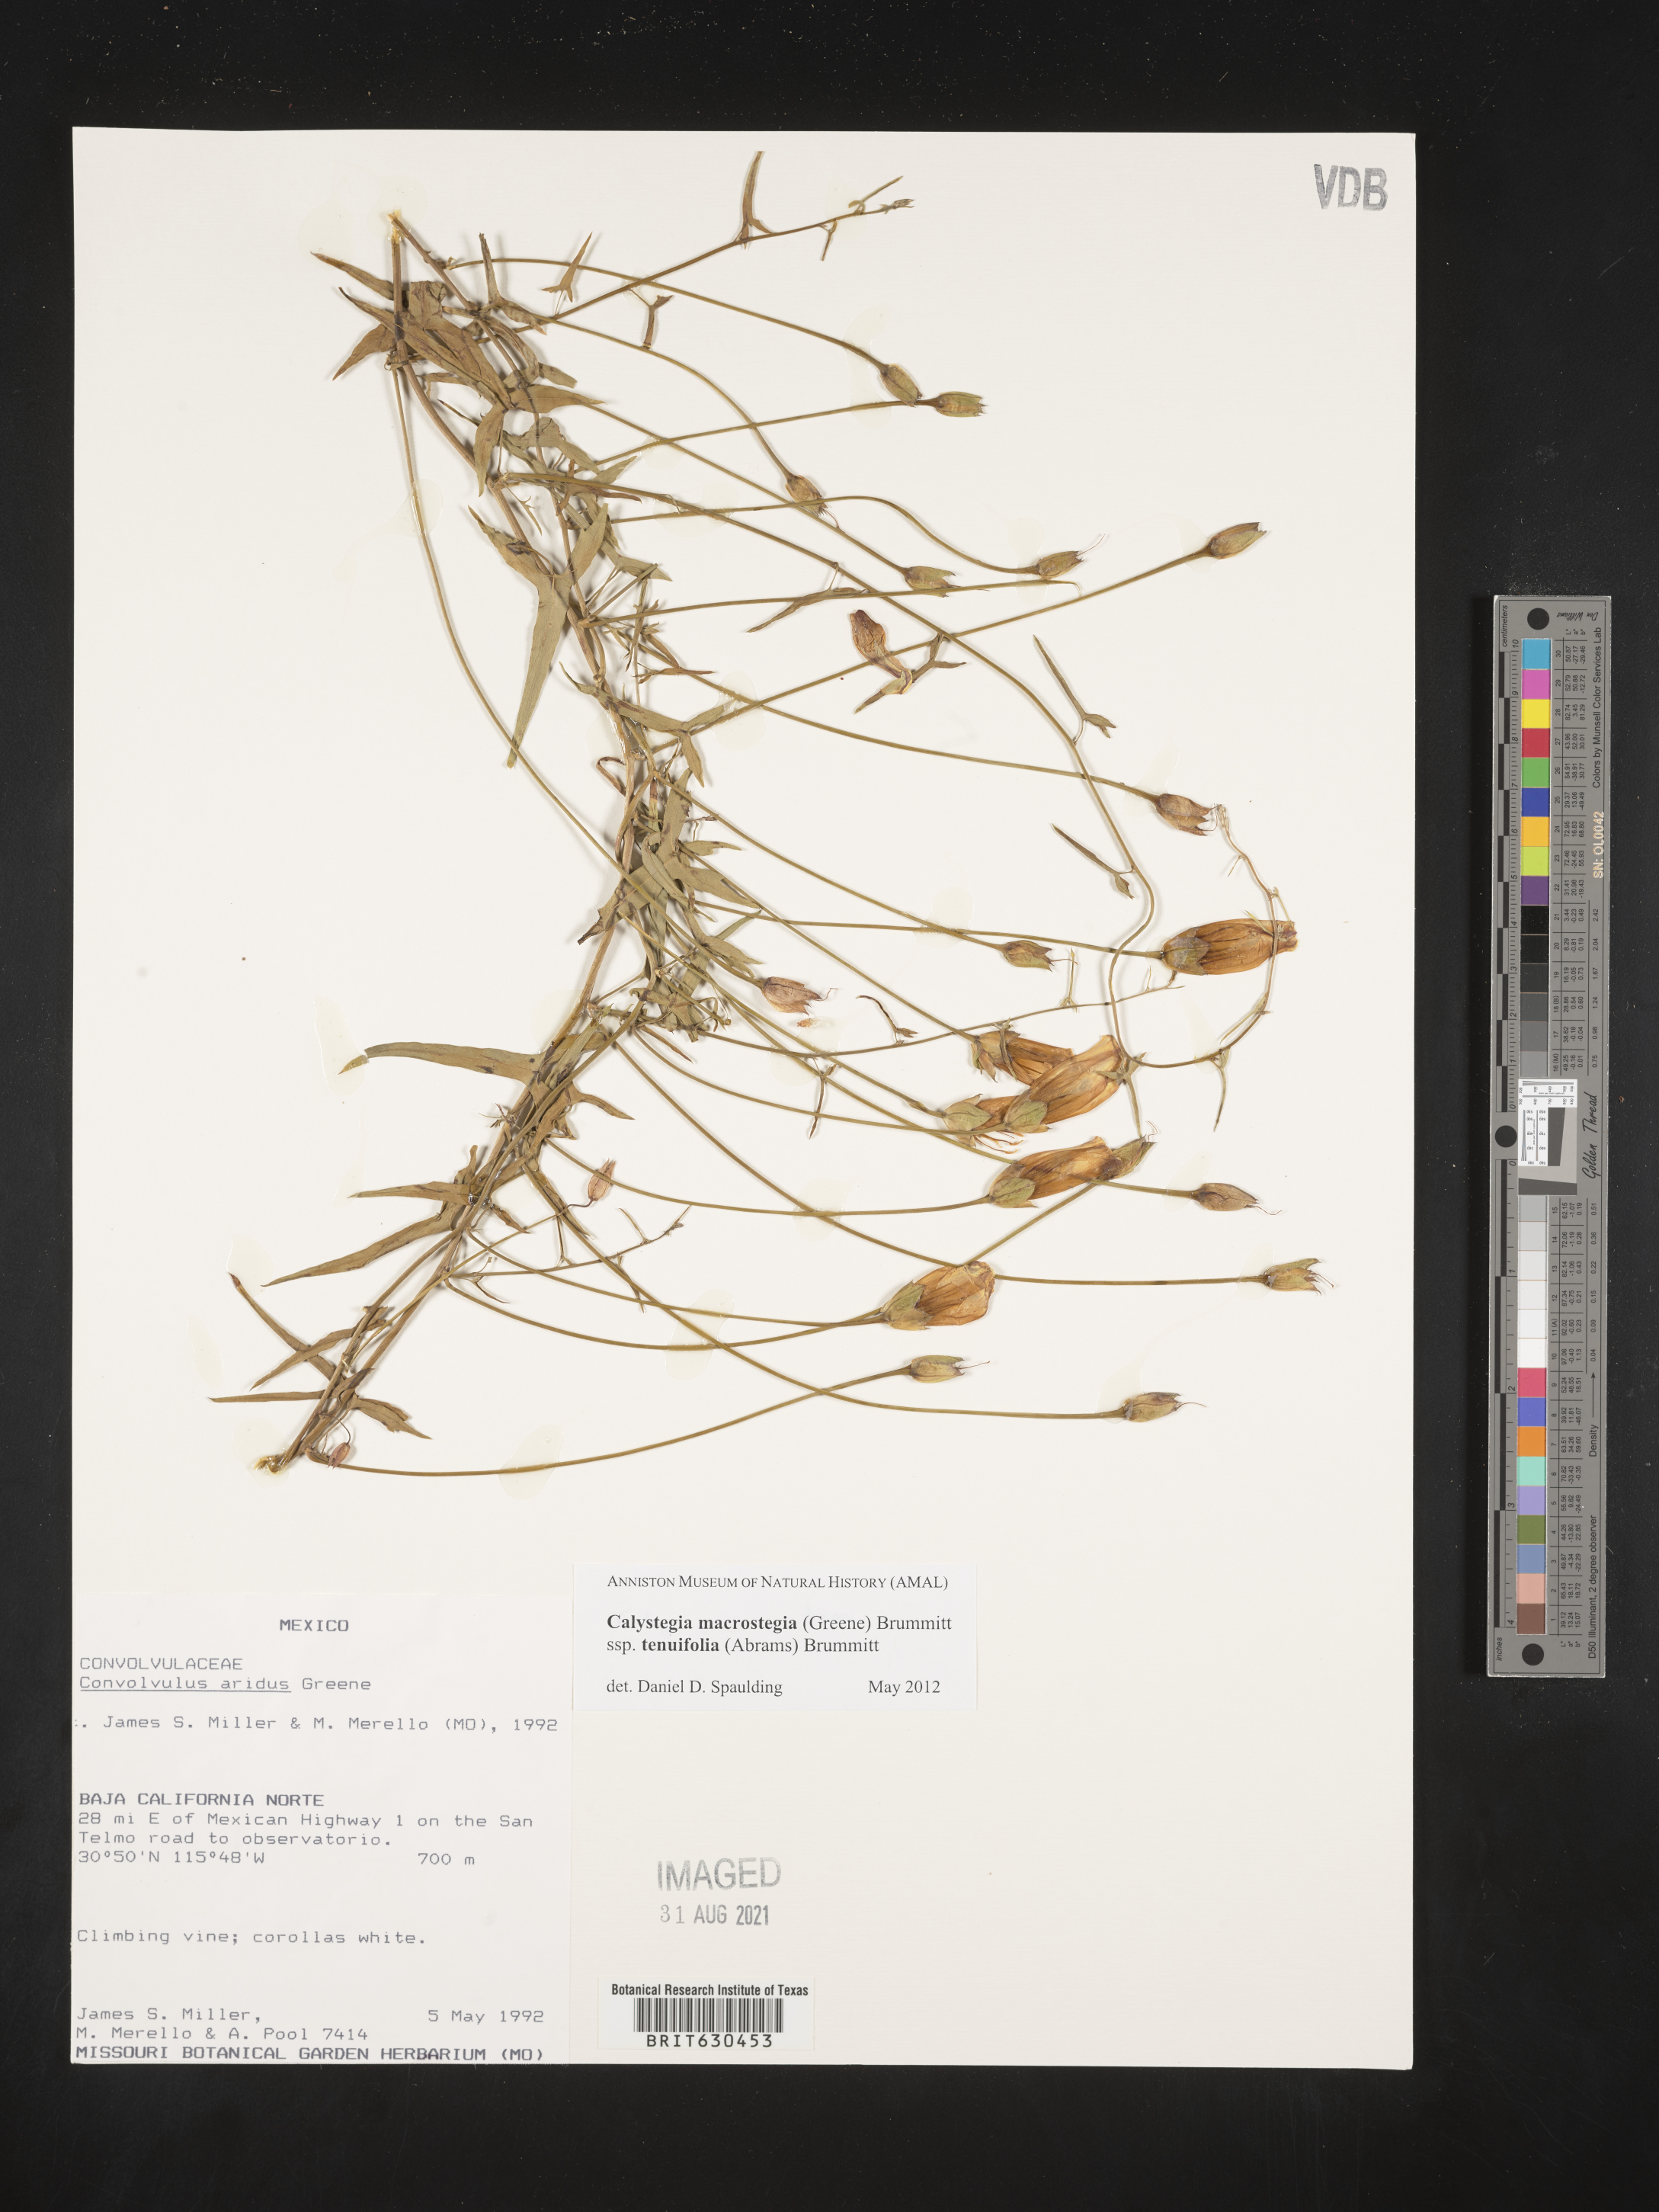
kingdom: Plantae
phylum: Tracheophyta
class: Magnoliopsida
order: Solanales
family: Convolvulaceae
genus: Calystegia
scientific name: Calystegia
